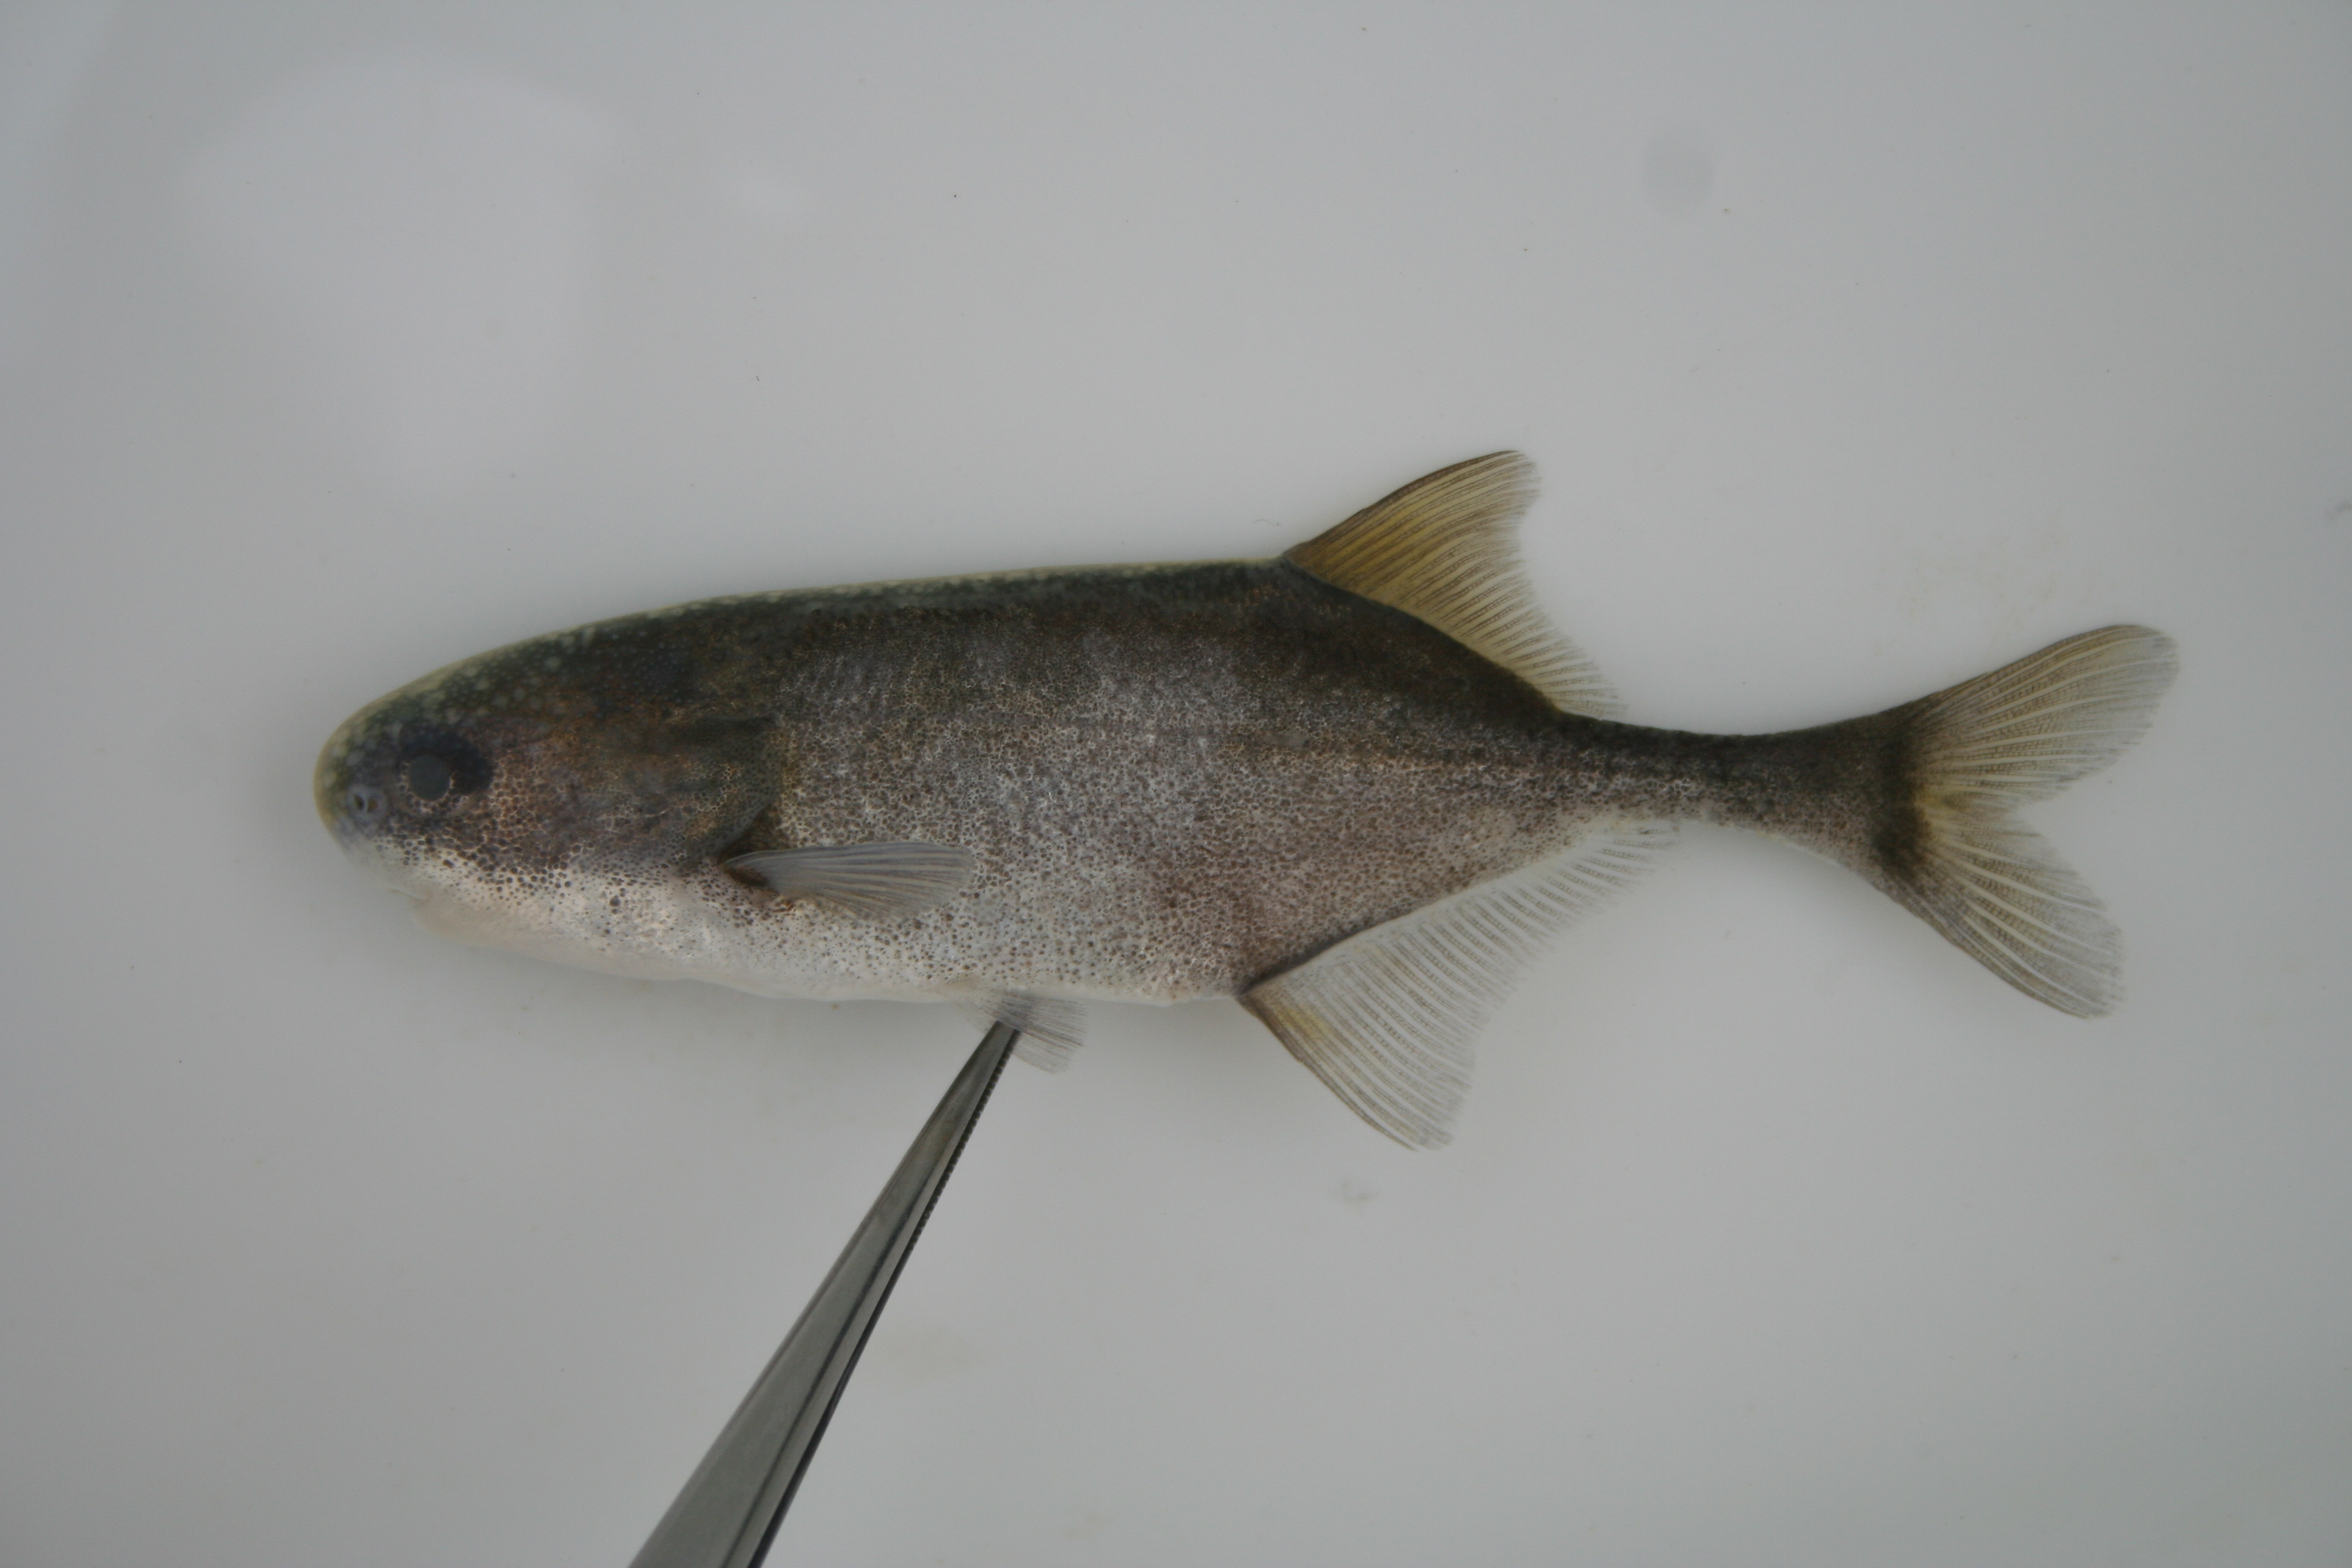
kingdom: Animalia
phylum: Chordata
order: Osteoglossiformes
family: Mormyridae
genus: Petrocephalus
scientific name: Petrocephalus
